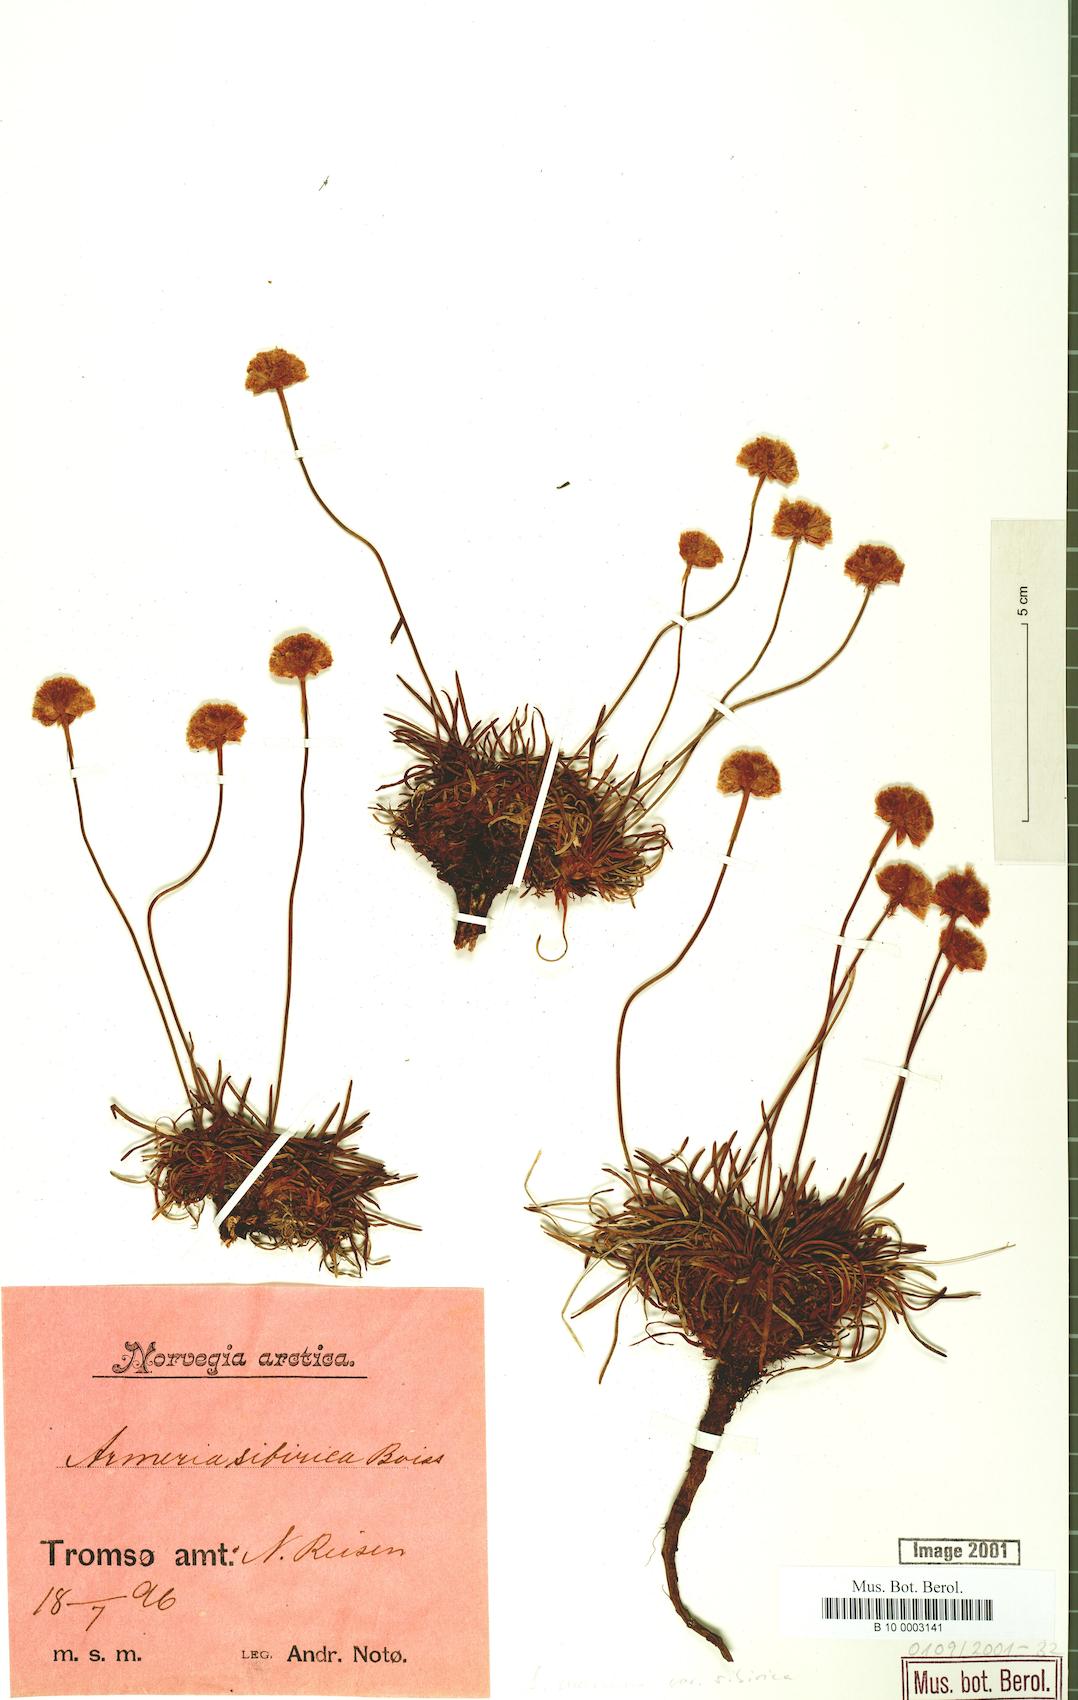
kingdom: Plantae
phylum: Tracheophyta
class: Magnoliopsida
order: Caryophyllales
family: Plumbaginaceae
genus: Armeria
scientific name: Armeria maritima
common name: Thrift
